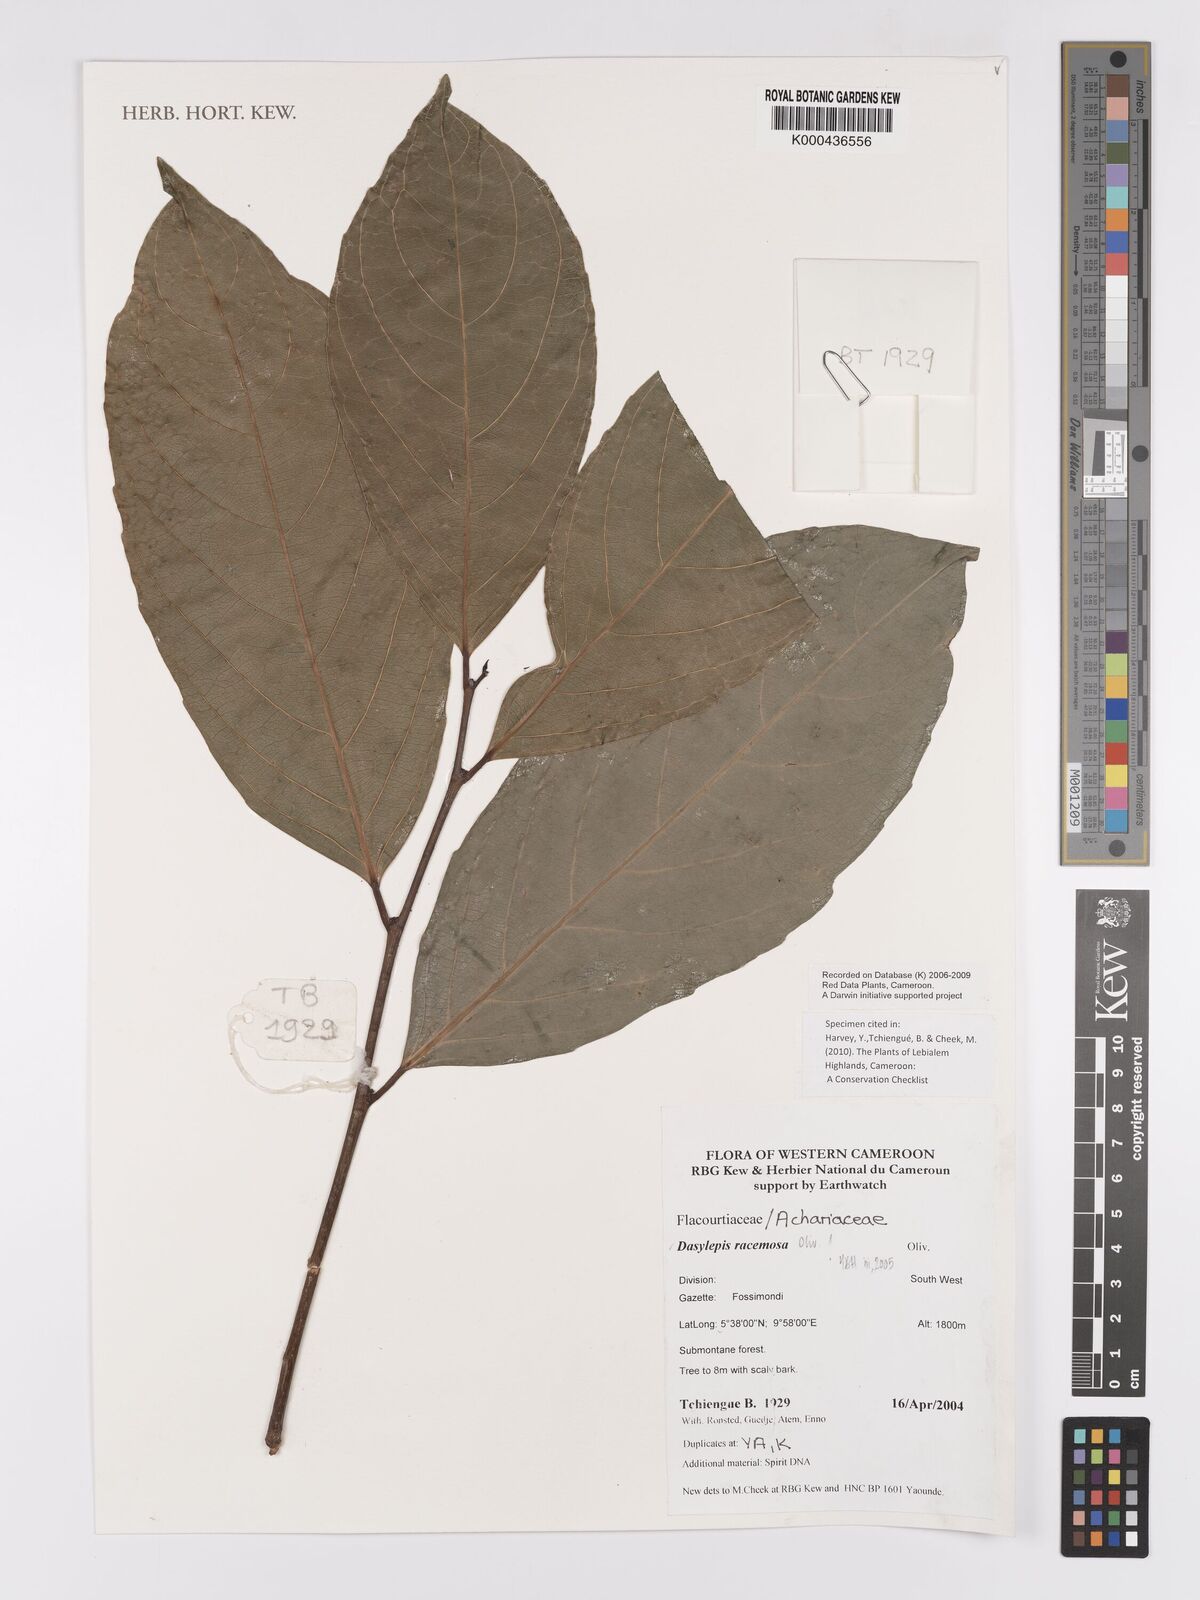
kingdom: Plantae
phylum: Tracheophyta
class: Magnoliopsida
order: Malpighiales
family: Achariaceae
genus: Dasylepis
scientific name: Dasylepis racemosa
